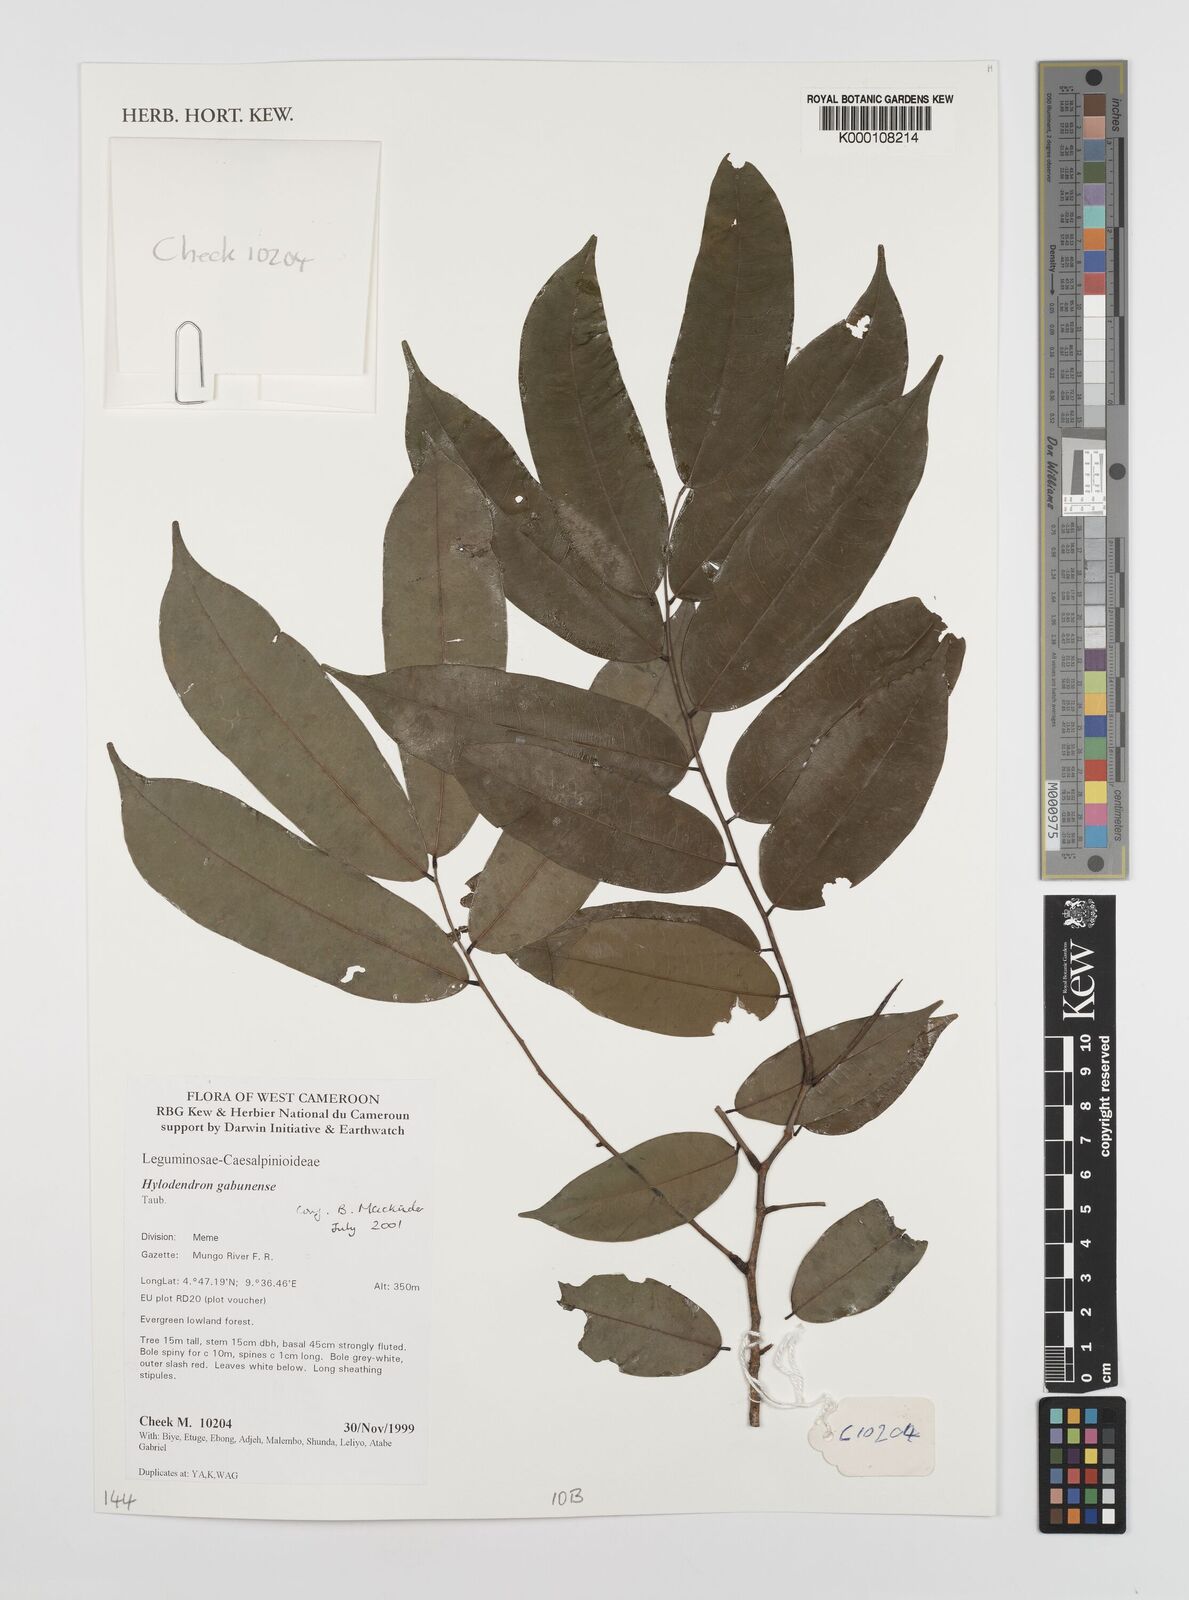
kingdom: Plantae
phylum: Tracheophyta
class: Magnoliopsida
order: Fabales
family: Fabaceae
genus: Hylodendron
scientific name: Hylodendron gabunense
